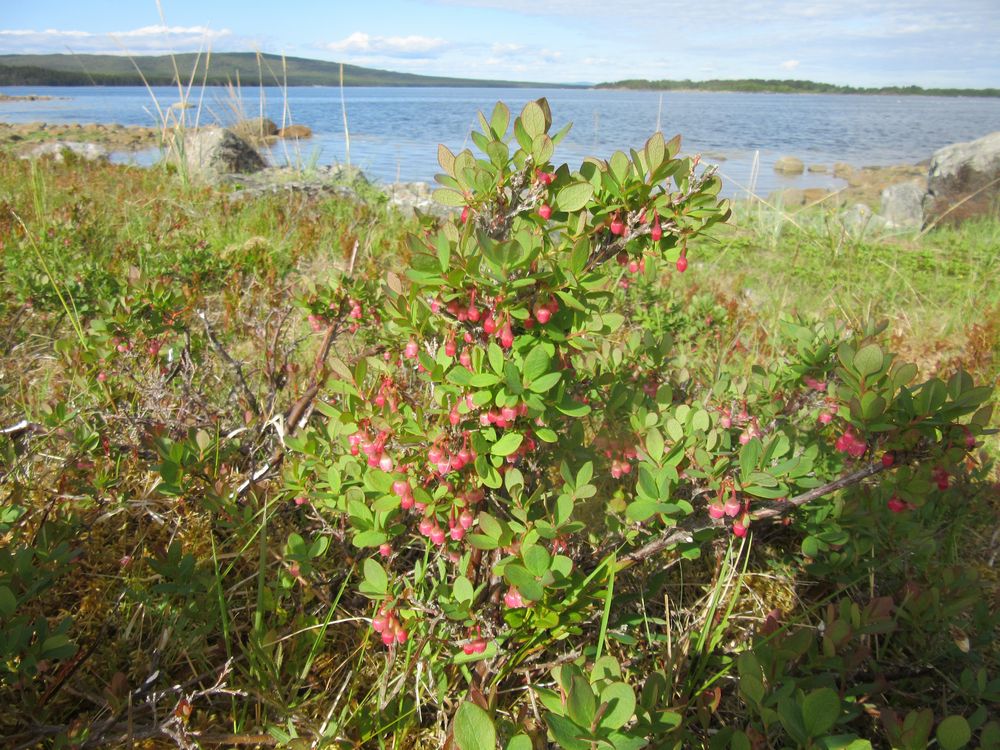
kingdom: Plantae
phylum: Tracheophyta
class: Magnoliopsida
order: Ericales
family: Ericaceae
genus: Vaccinium
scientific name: Vaccinium uliginosum
